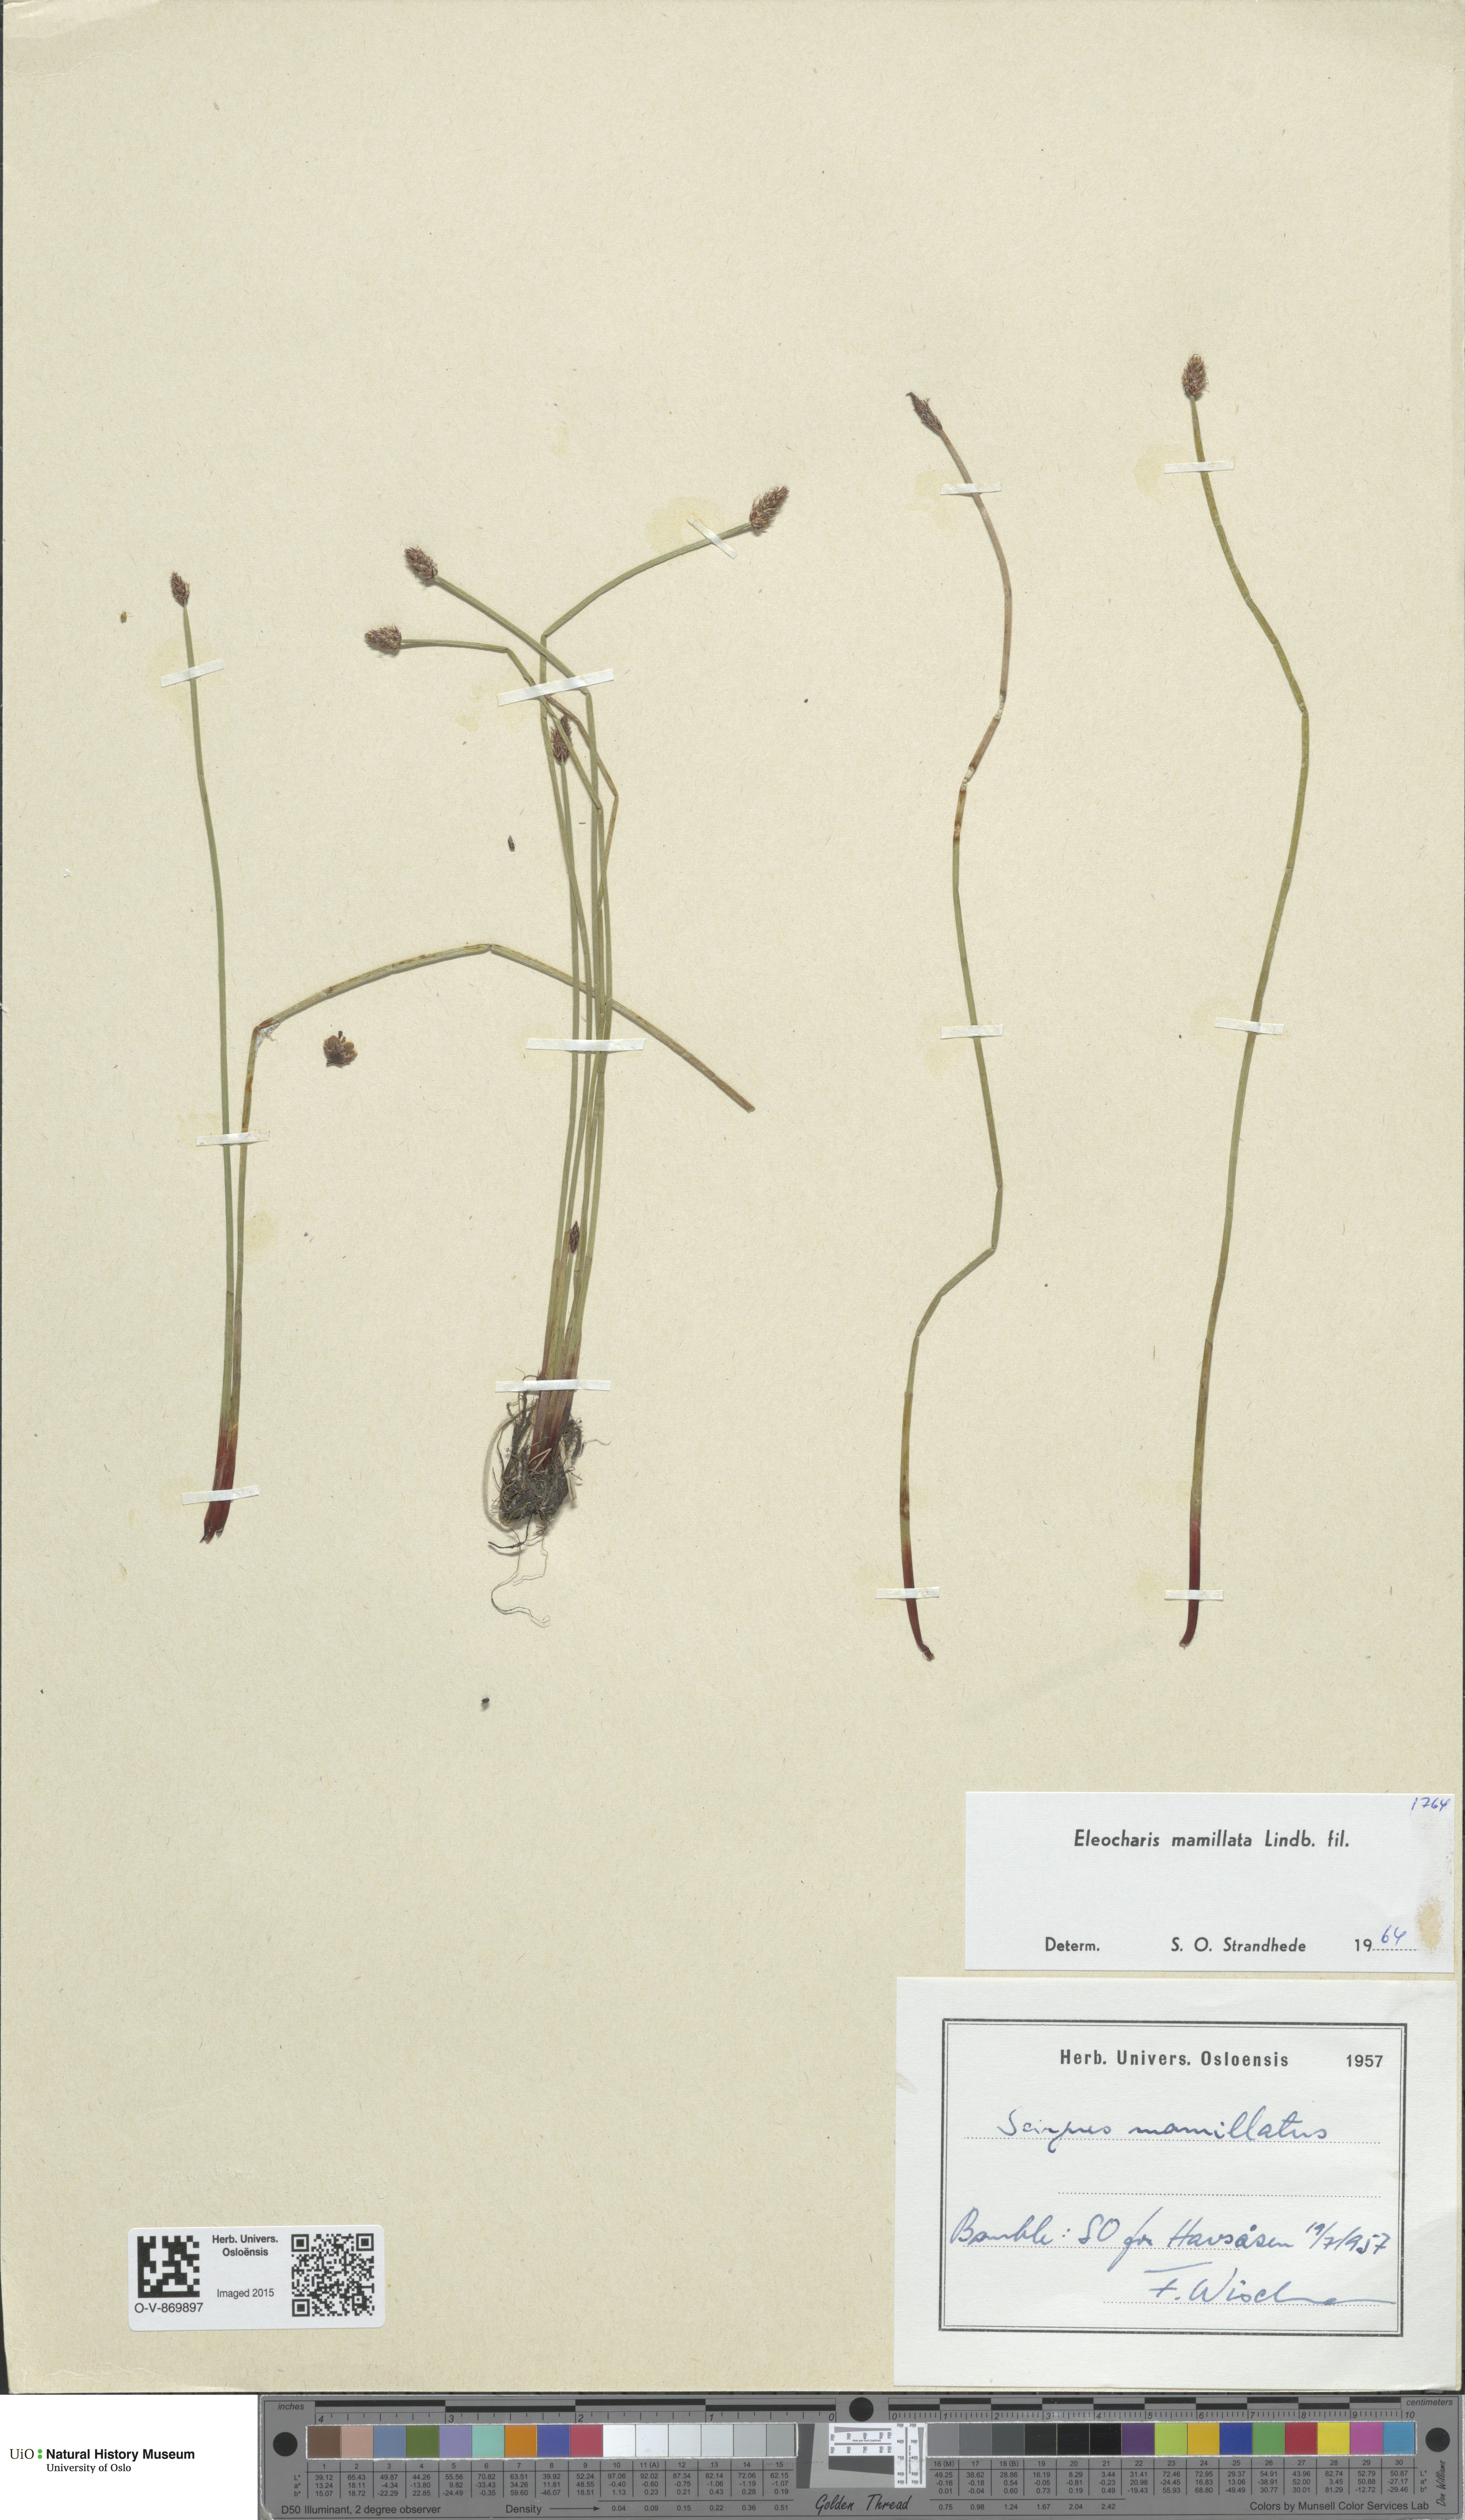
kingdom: Plantae
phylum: Tracheophyta
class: Liliopsida
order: Poales
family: Cyperaceae
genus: Eleocharis
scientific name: Eleocharis mamillata
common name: Northern spike-rush
